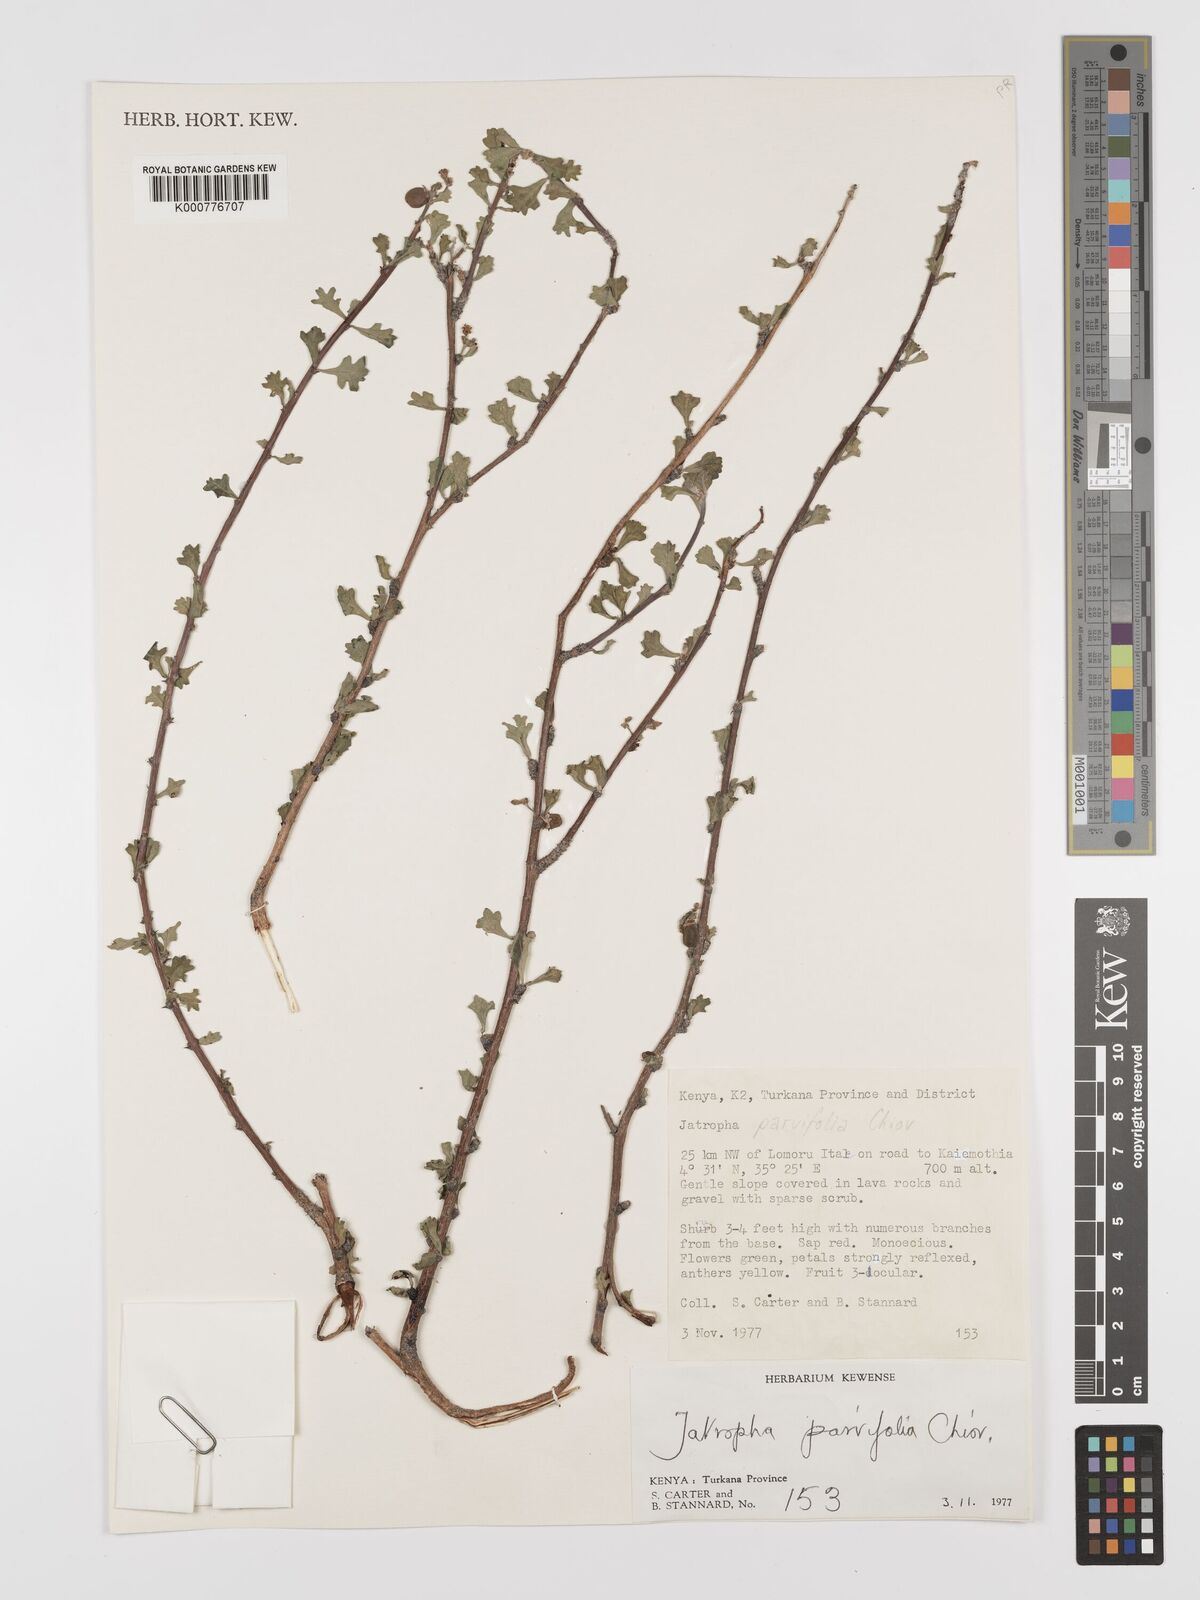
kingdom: Plantae
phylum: Tracheophyta
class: Magnoliopsida
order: Malpighiales
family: Euphorbiaceae
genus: Jatropha
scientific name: Jatropha rivae
